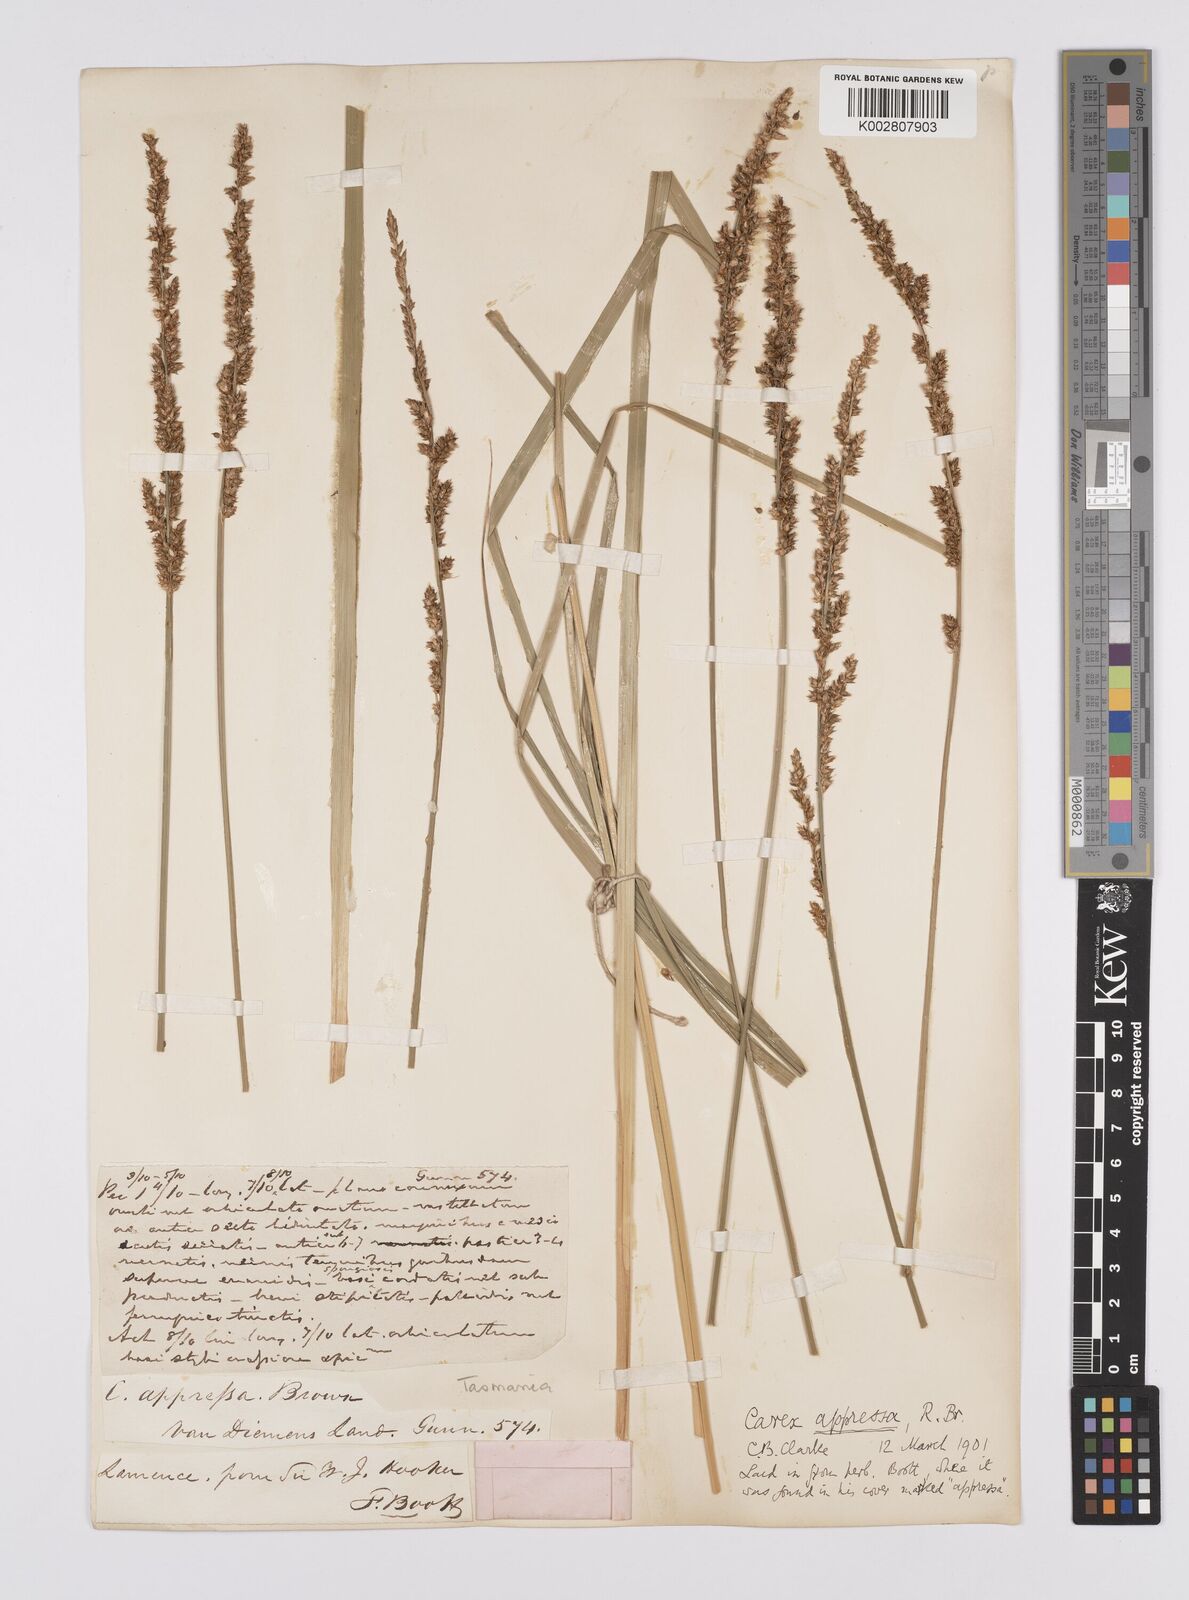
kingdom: Plantae
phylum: Tracheophyta
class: Liliopsida
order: Poales
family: Cyperaceae
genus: Carex
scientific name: Carex appressa
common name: Tussock sedge
